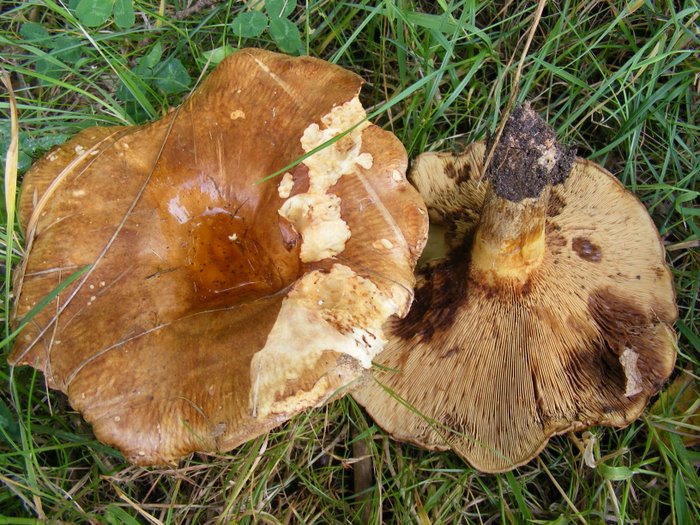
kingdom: Fungi
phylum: Basidiomycota
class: Agaricomycetes
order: Boletales
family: Paxillaceae
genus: Paxillus
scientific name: Paxillus involutus
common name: almindelig netbladhat
